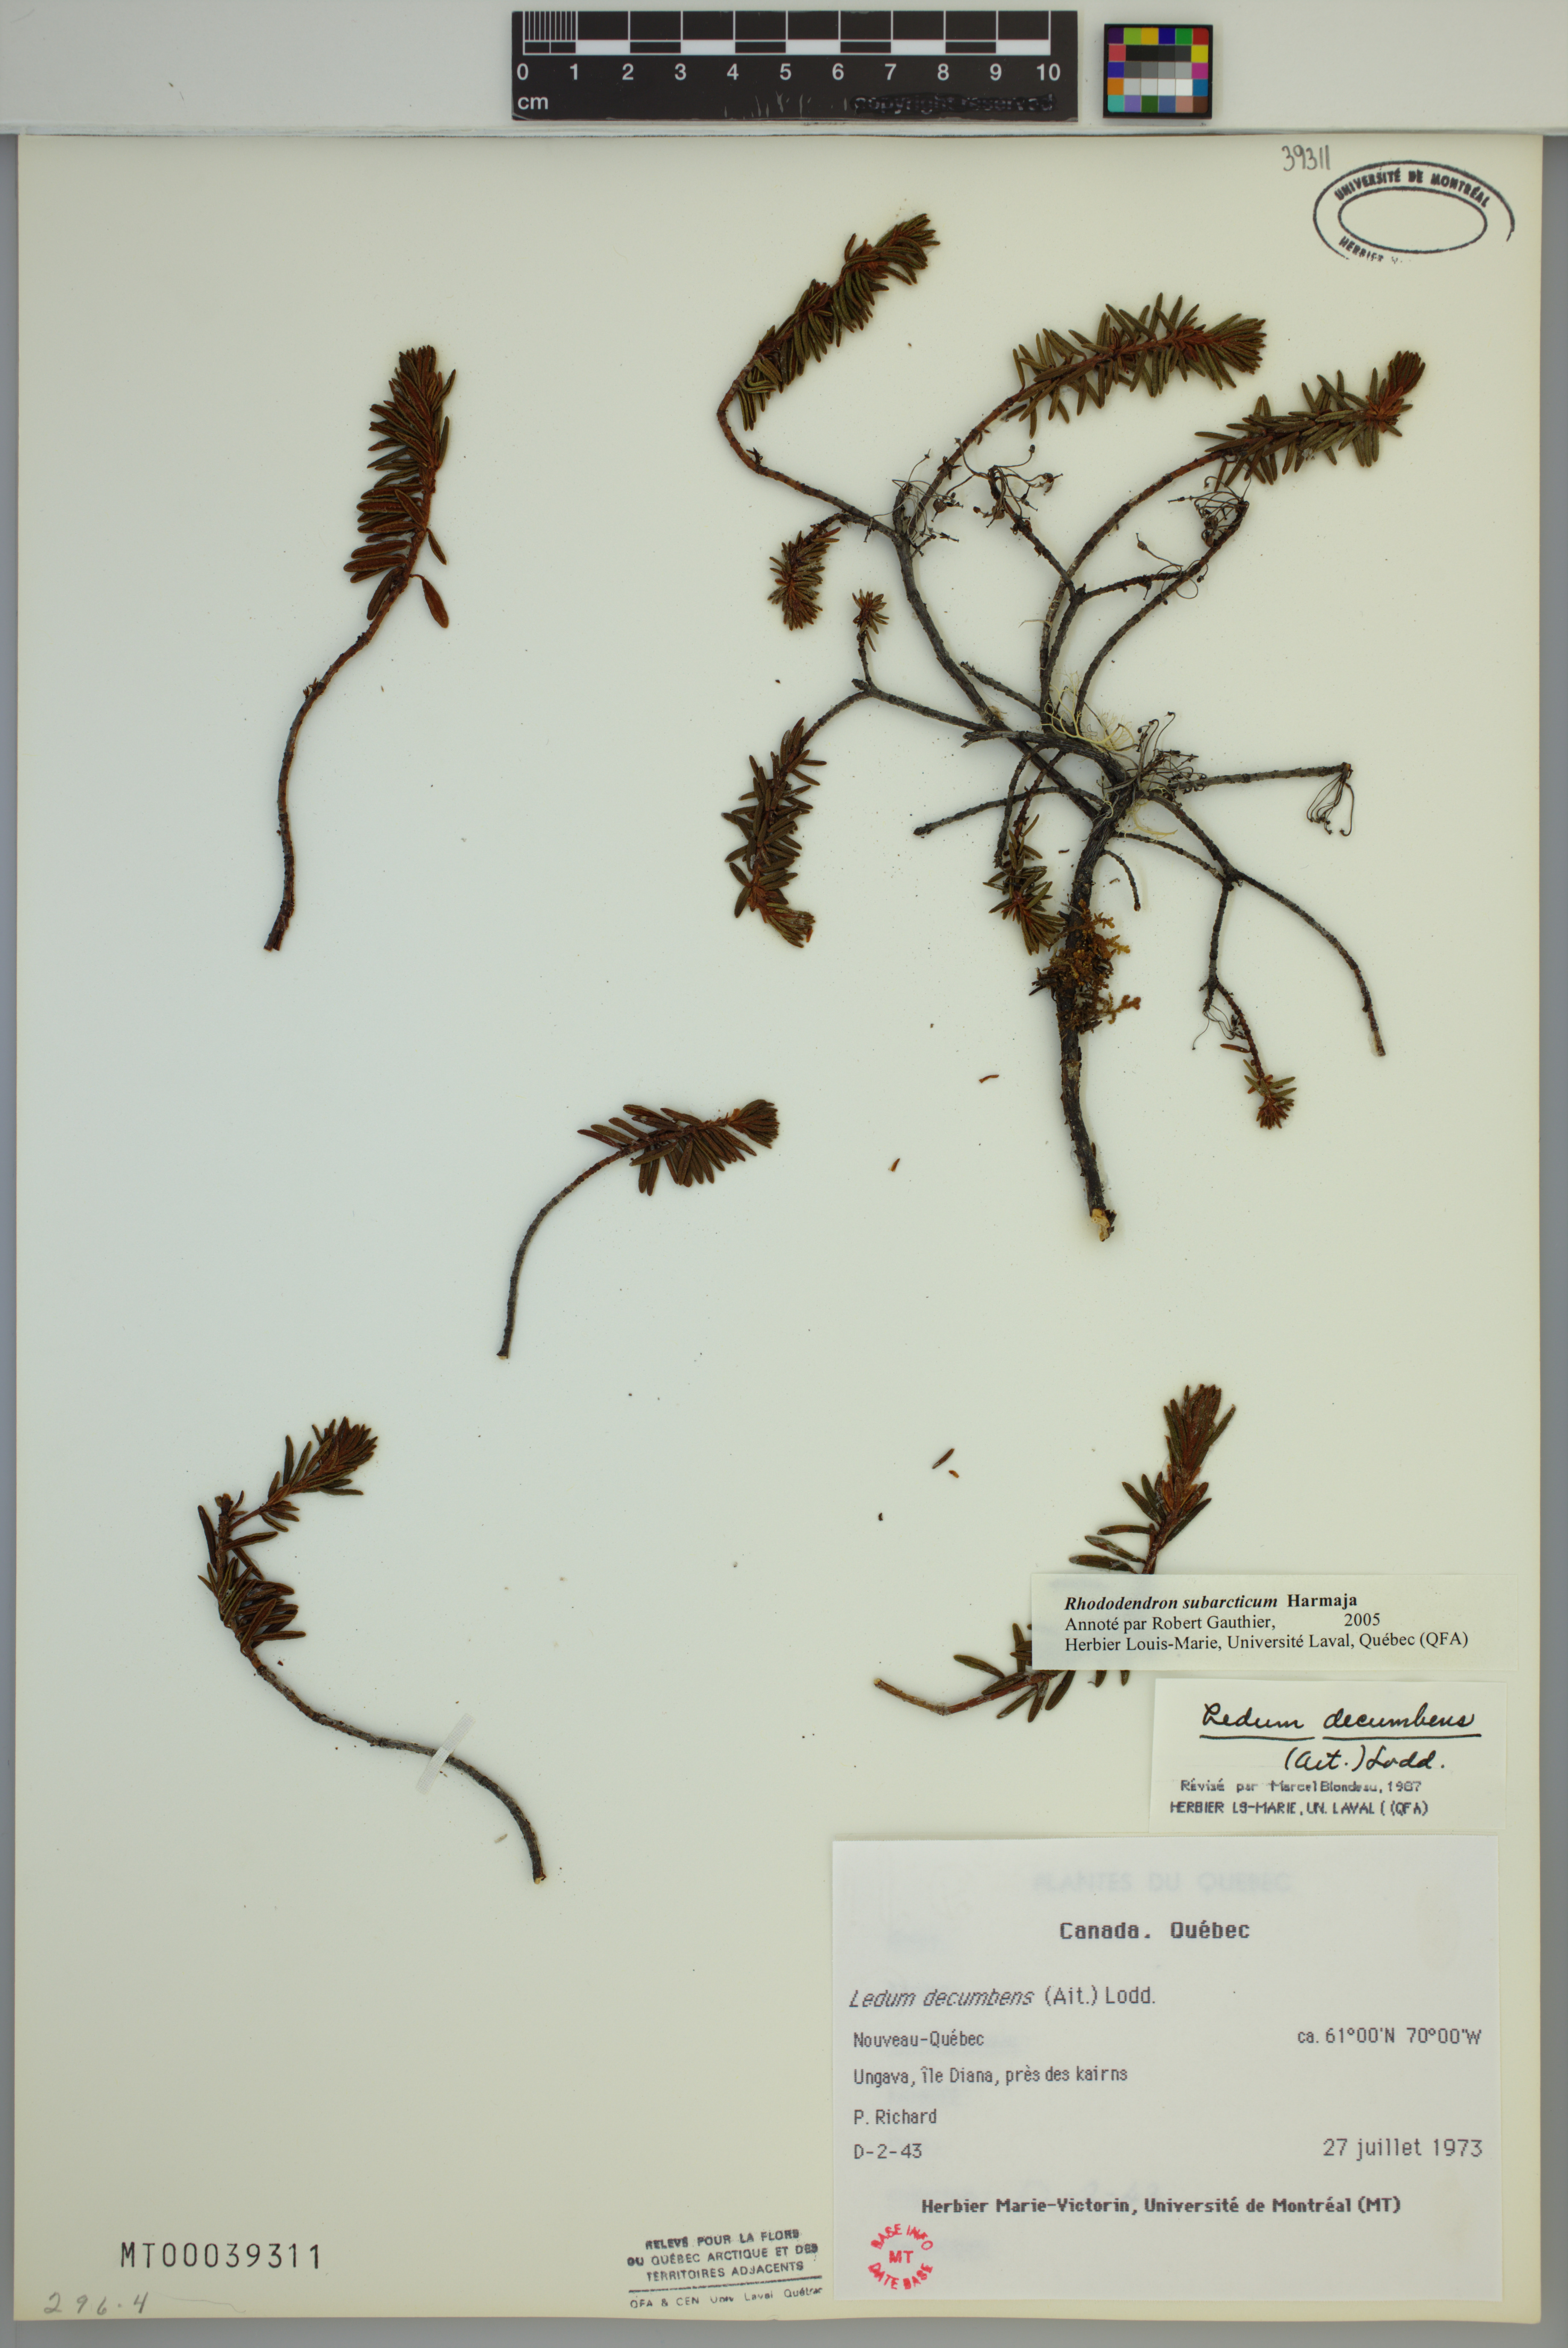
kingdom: Plantae
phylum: Tracheophyta
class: Magnoliopsida
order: Ericales
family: Ericaceae
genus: Rhododendron
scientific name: Rhododendron tomentosum
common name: Marsh labrador tea
